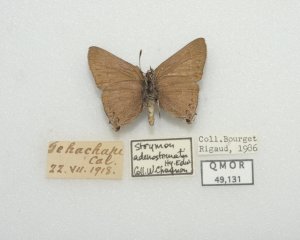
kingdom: Animalia
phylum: Arthropoda
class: Insecta
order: Lepidoptera
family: Lycaenidae
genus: Thecla
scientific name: Thecla tetra
